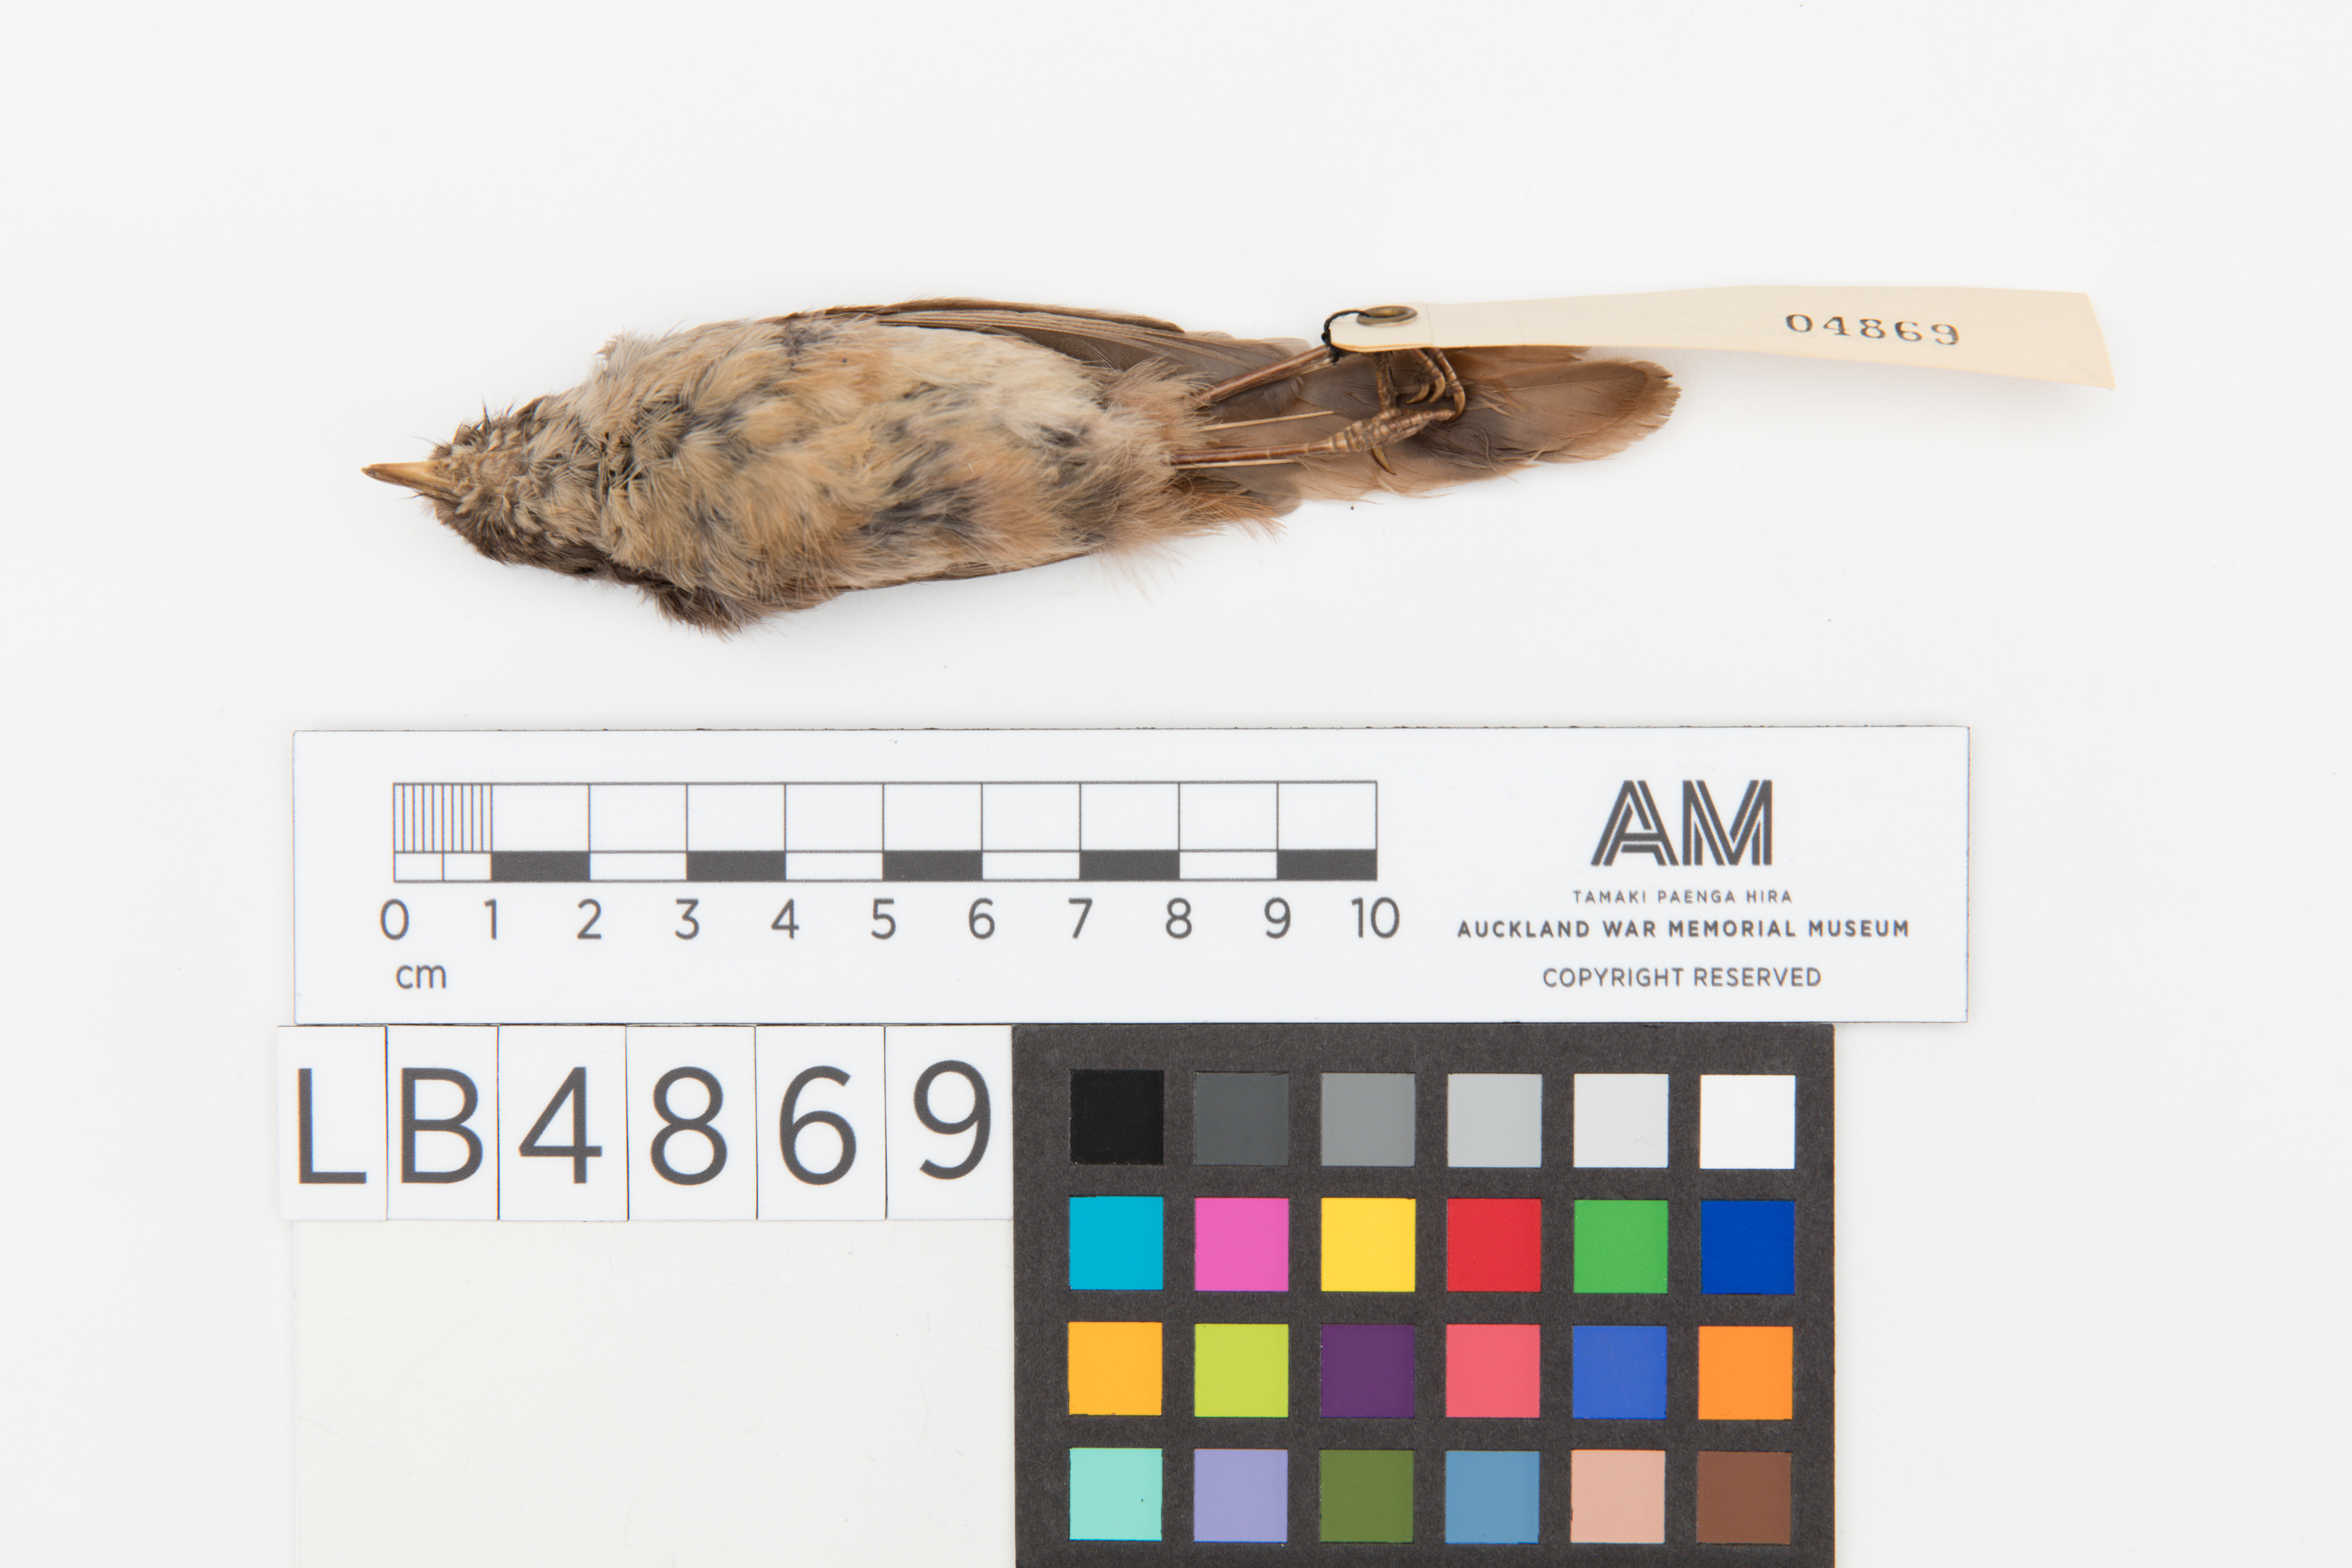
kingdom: Animalia
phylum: Chordata
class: Aves
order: Passeriformes
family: Acanthizidae
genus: Finschia
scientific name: Finschia novaeseelandiae
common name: Pipipi
